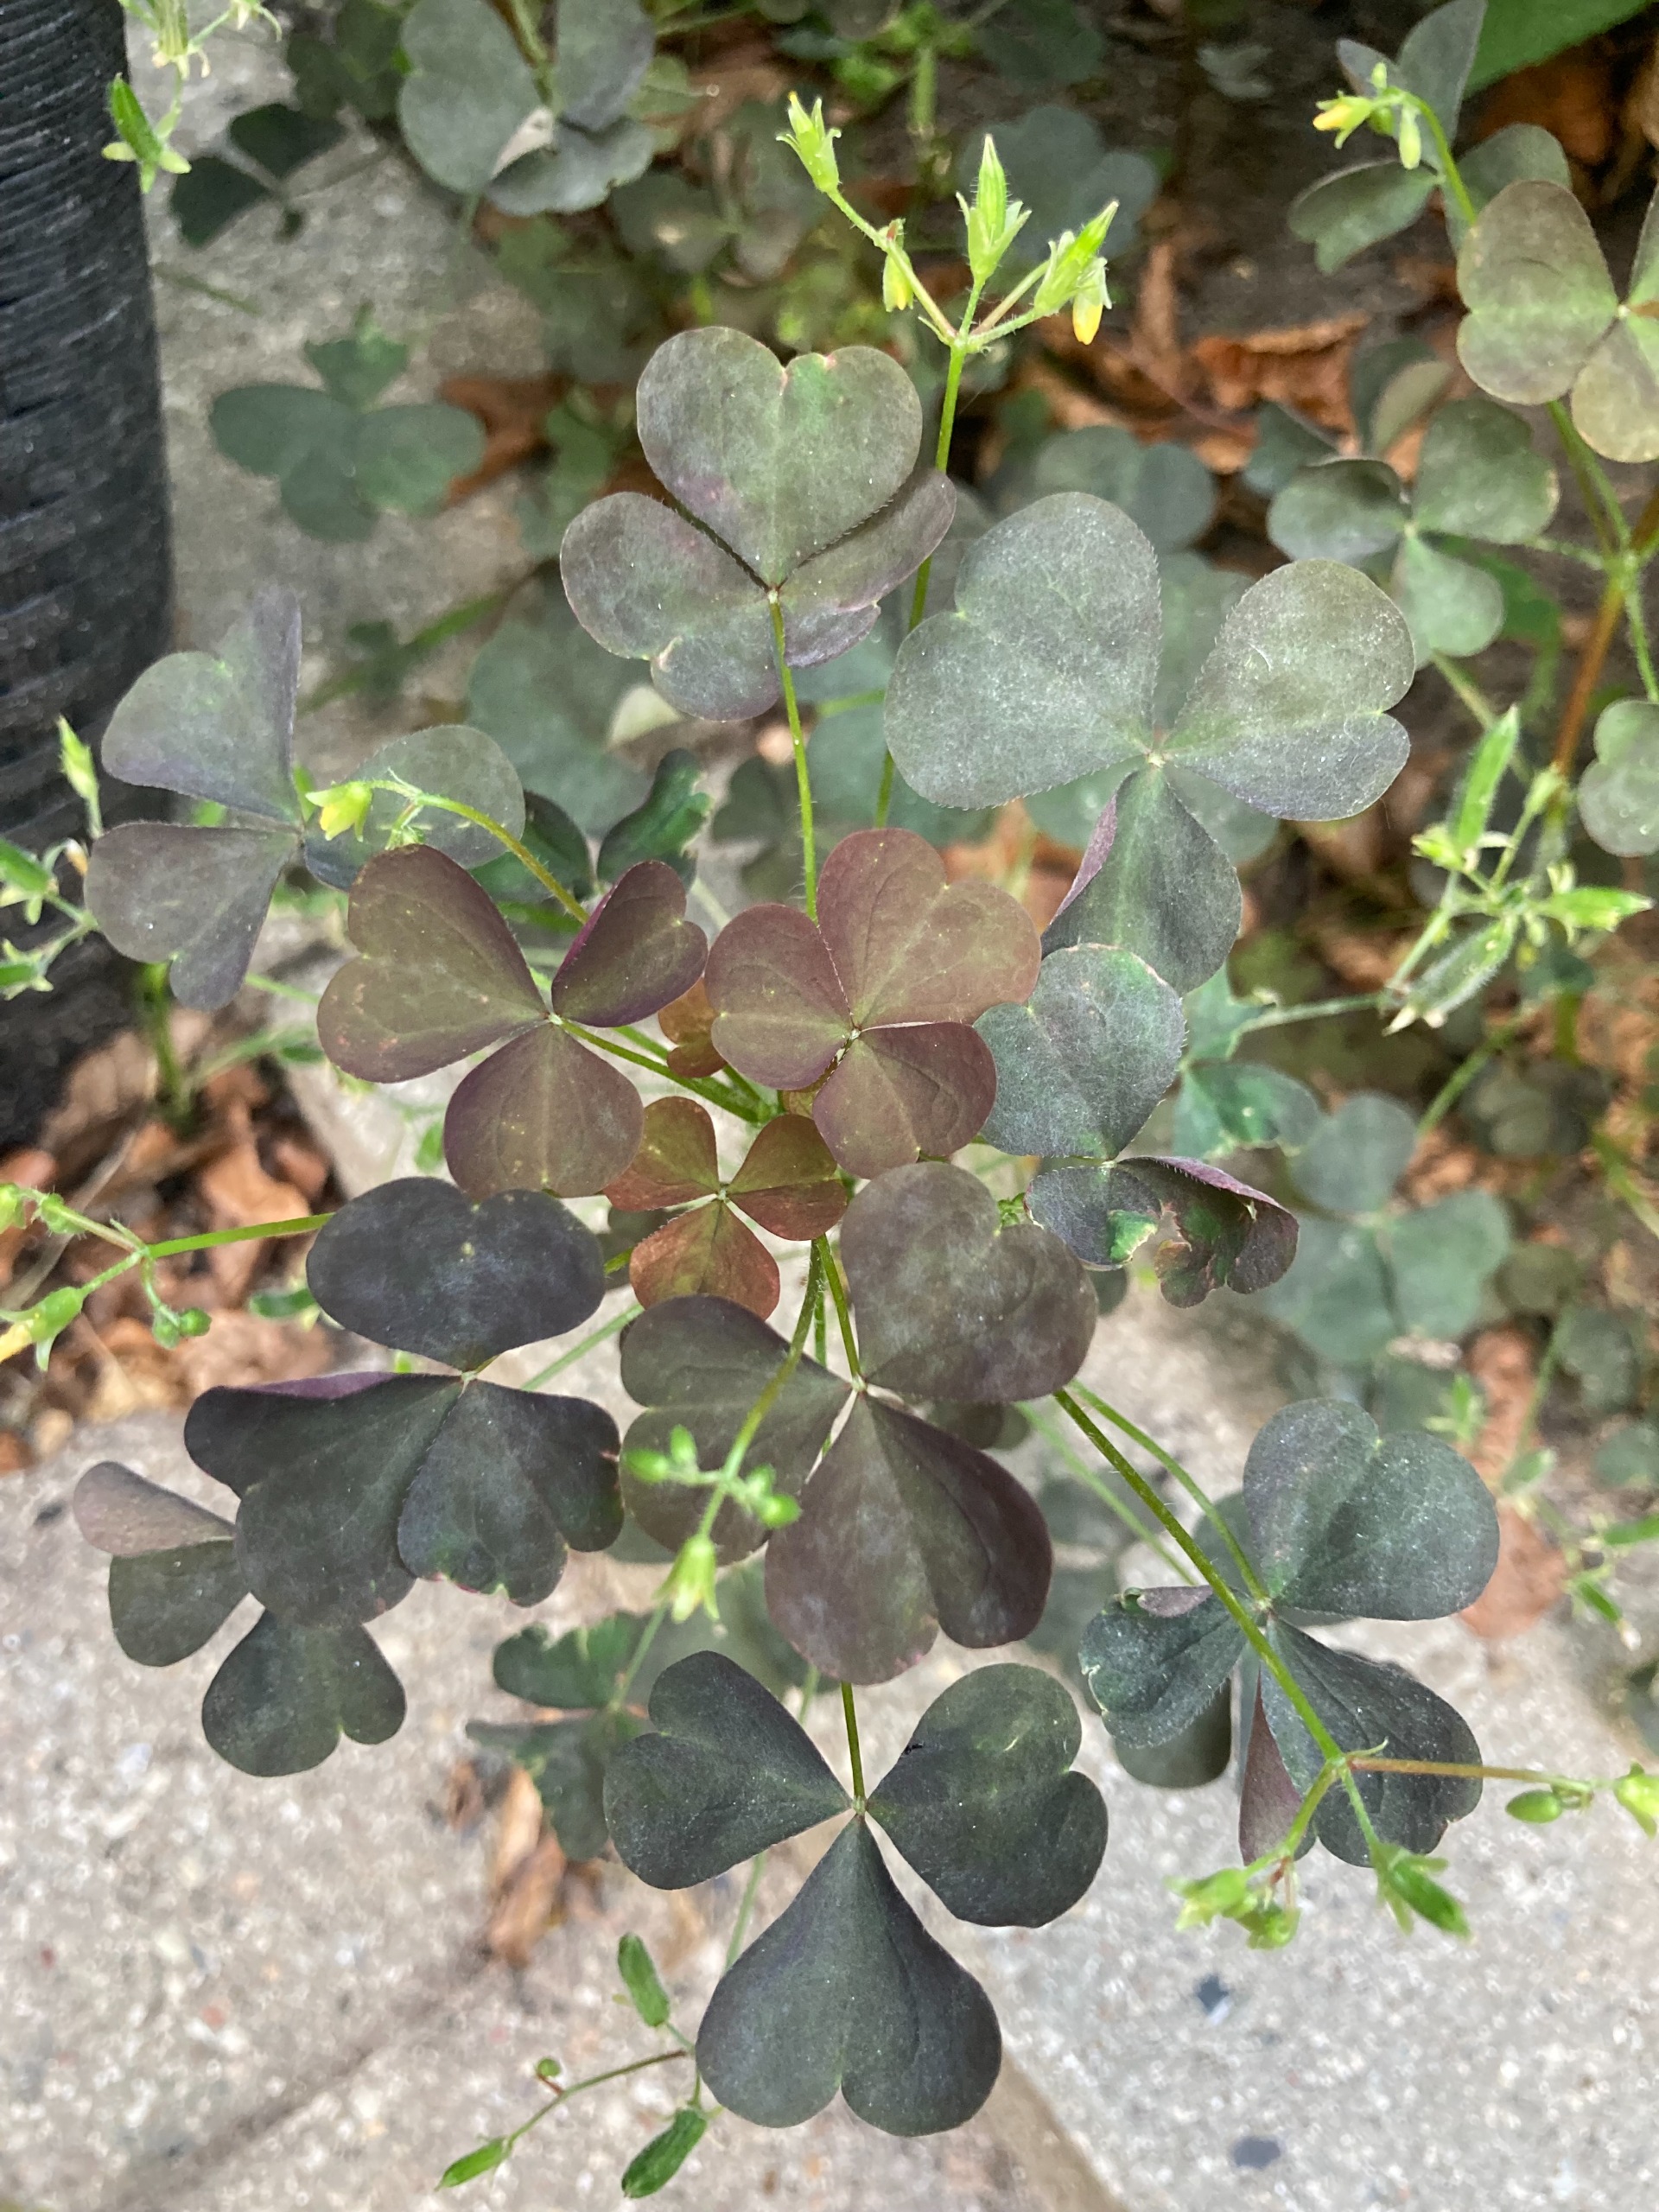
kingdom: Plantae
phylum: Tracheophyta
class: Magnoliopsida
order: Oxalidales
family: Oxalidaceae
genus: Oxalis
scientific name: Oxalis stricta
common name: Rank surkløver
